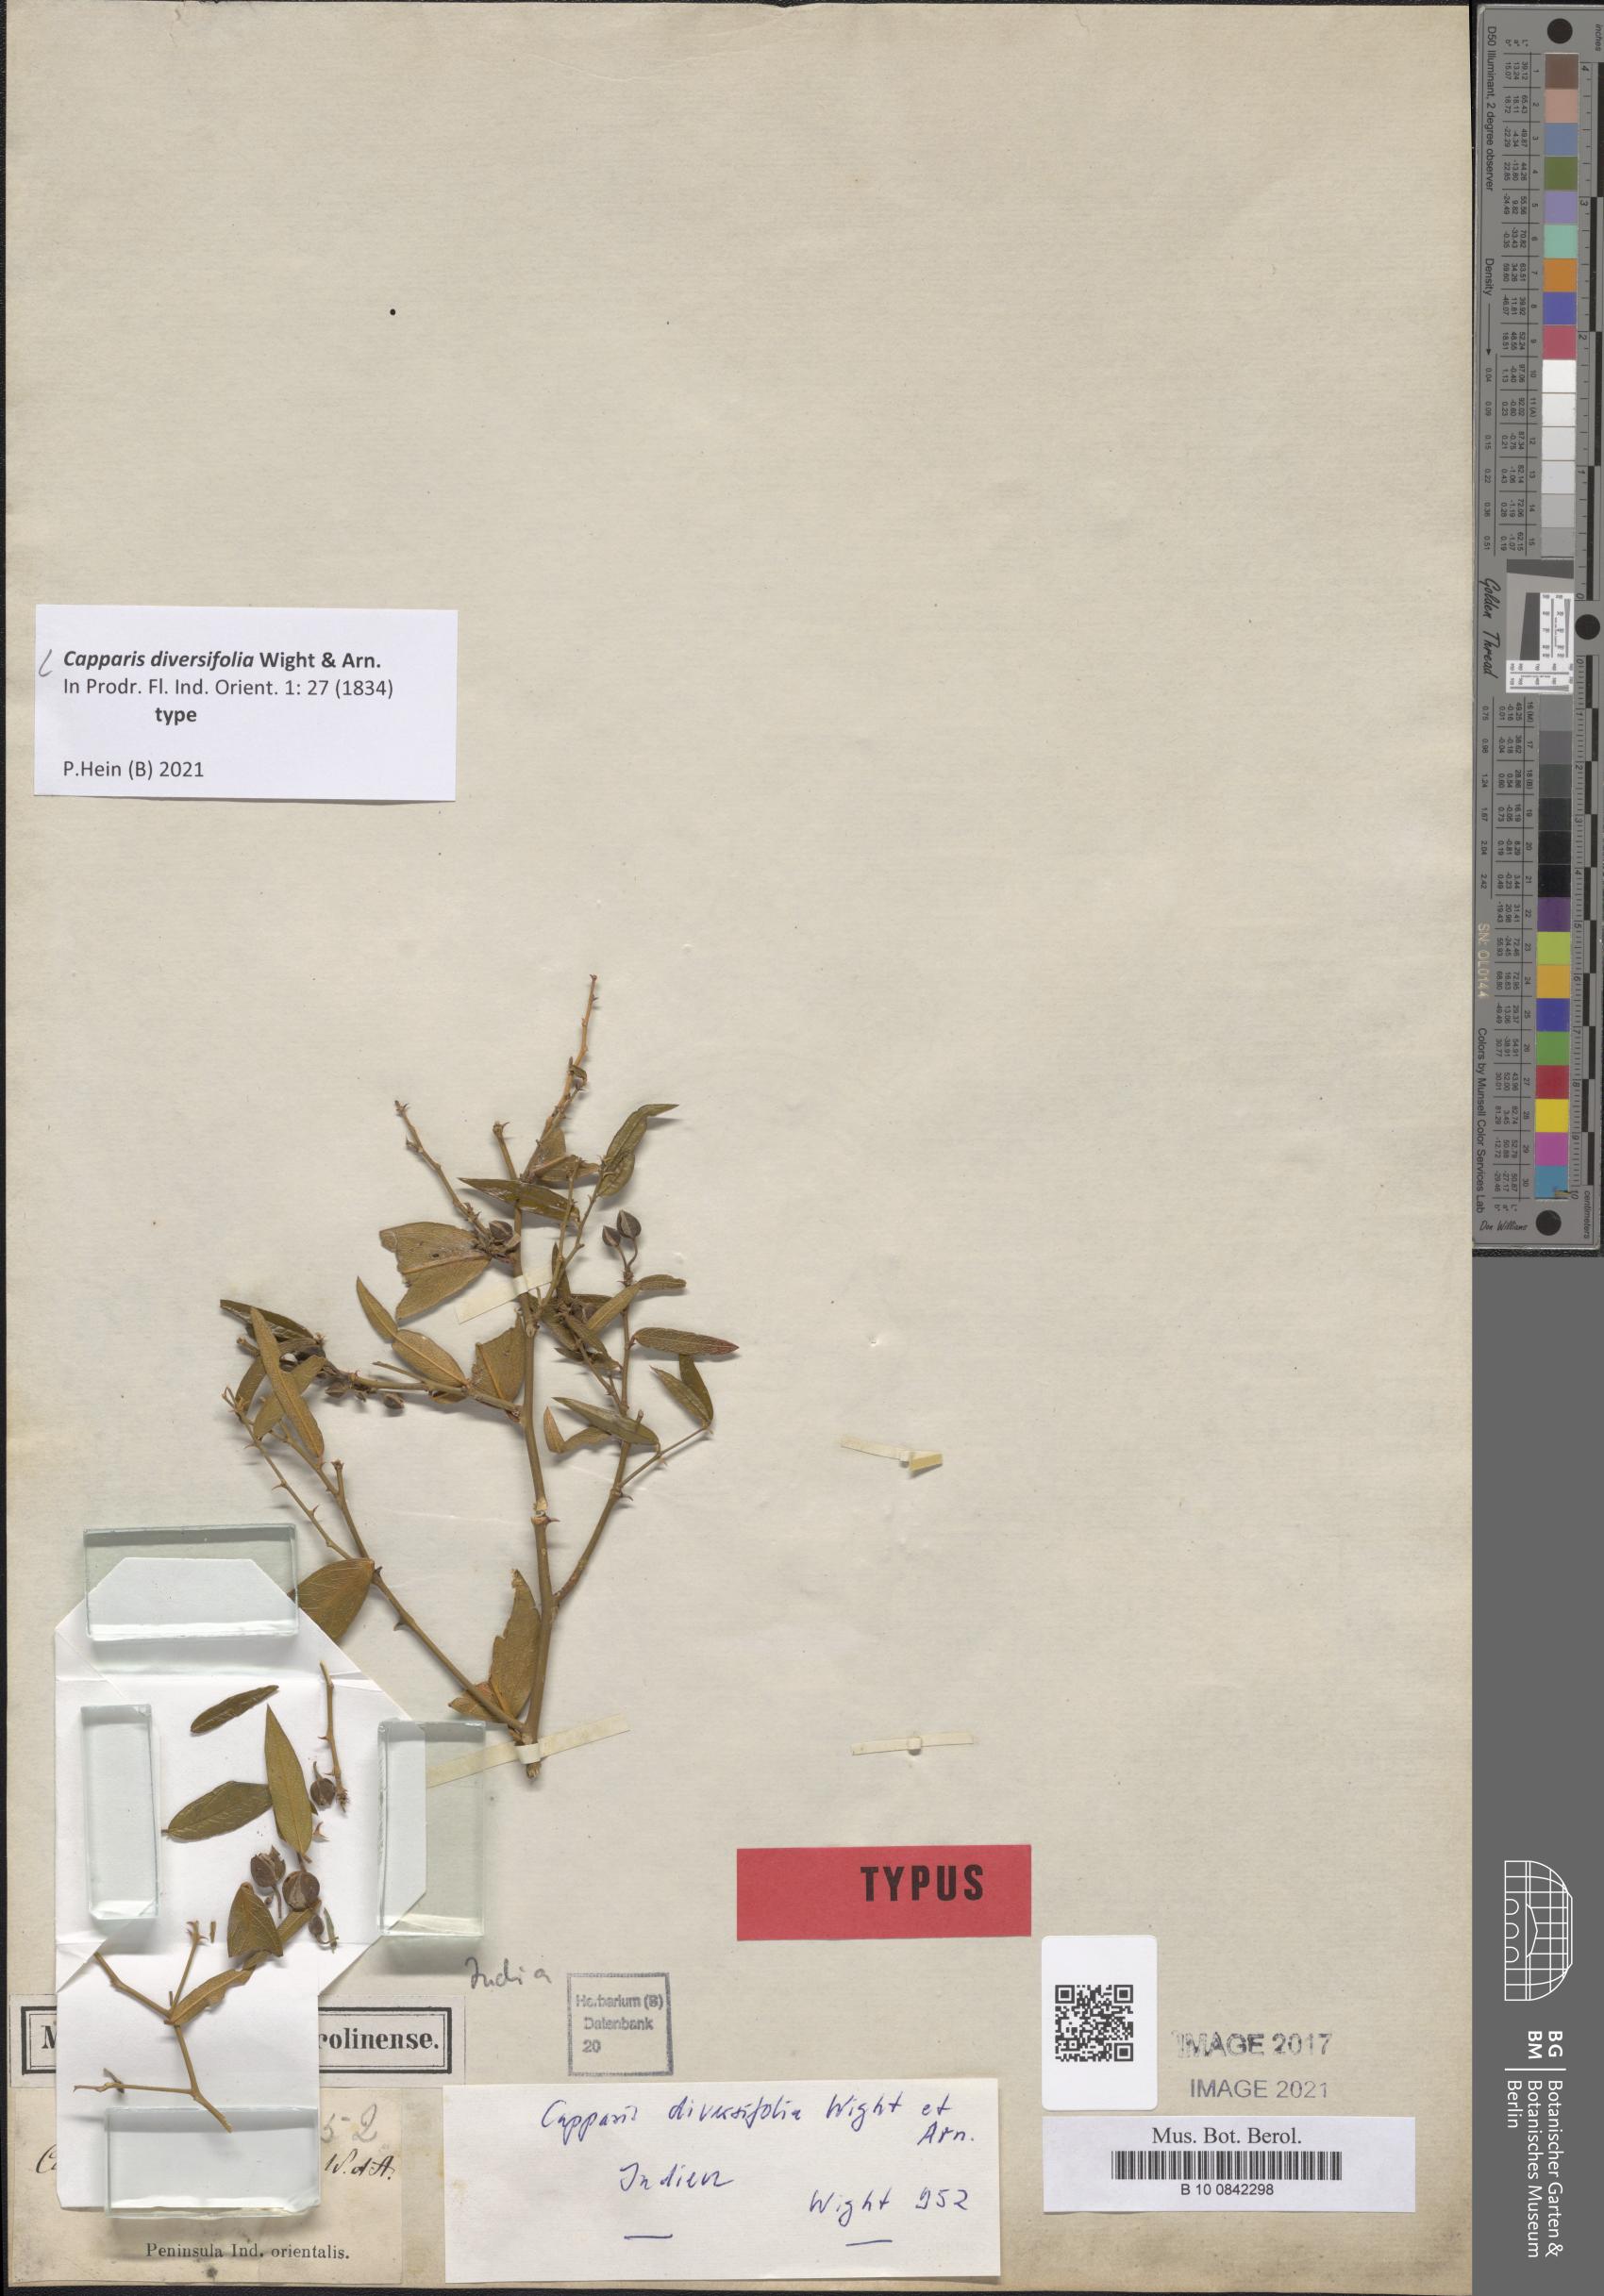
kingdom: Plantae
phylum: Tracheophyta
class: Magnoliopsida
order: Brassicales
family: Capparaceae
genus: Capparis
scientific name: Capparis diversifolia
